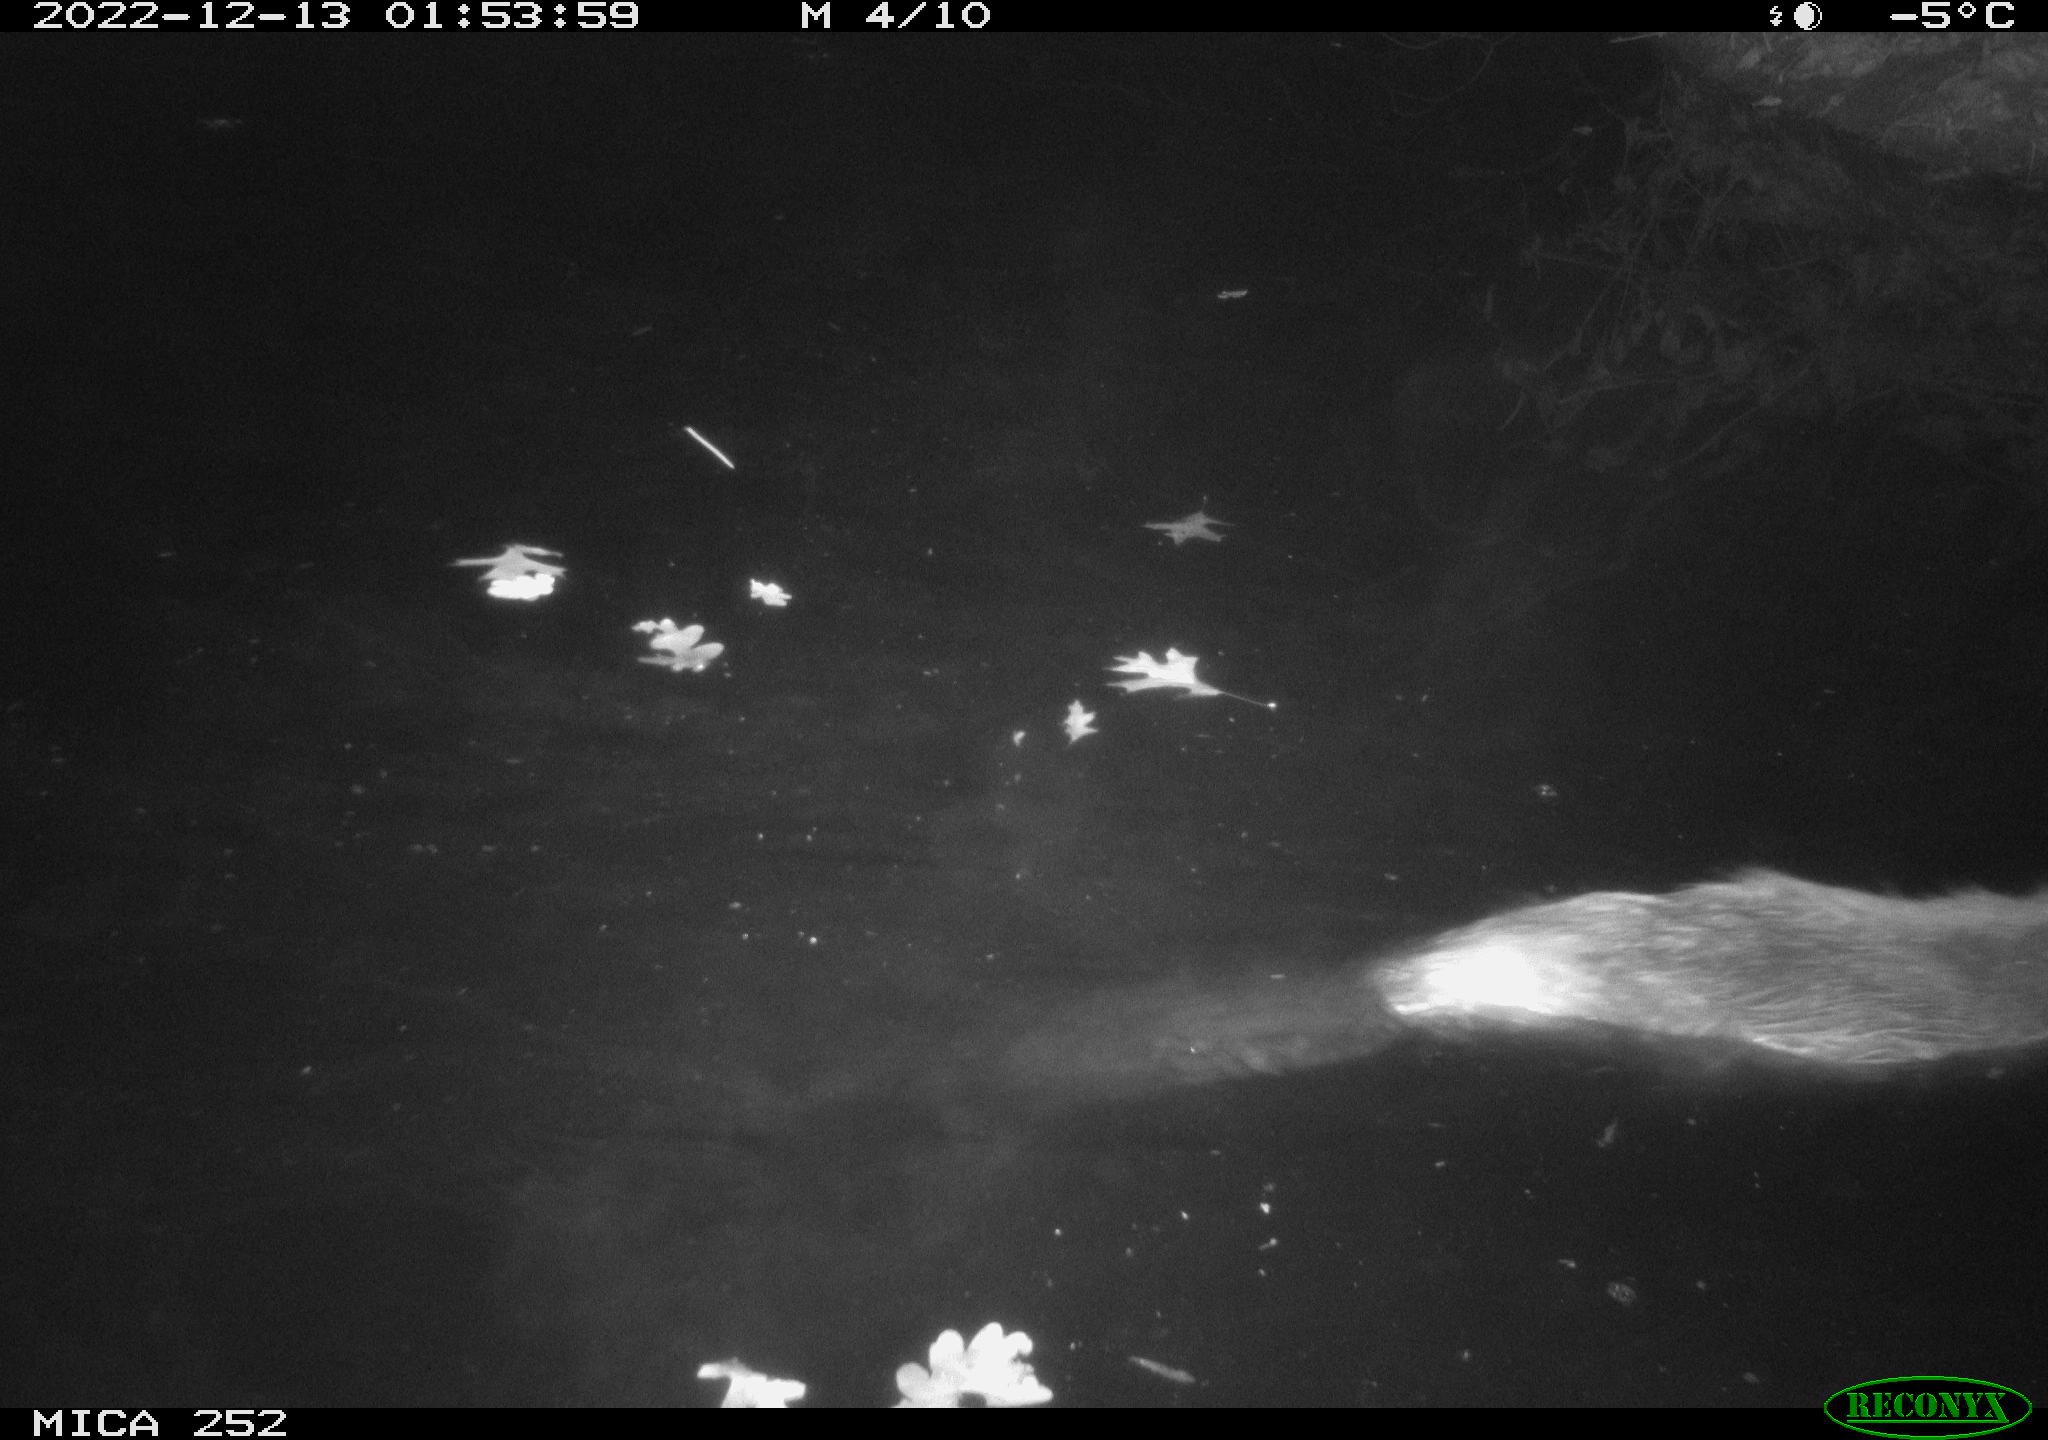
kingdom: Animalia
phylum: Chordata
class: Mammalia
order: Rodentia
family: Castoridae
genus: Castor
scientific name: Castor fiber
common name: Eurasian beaver
